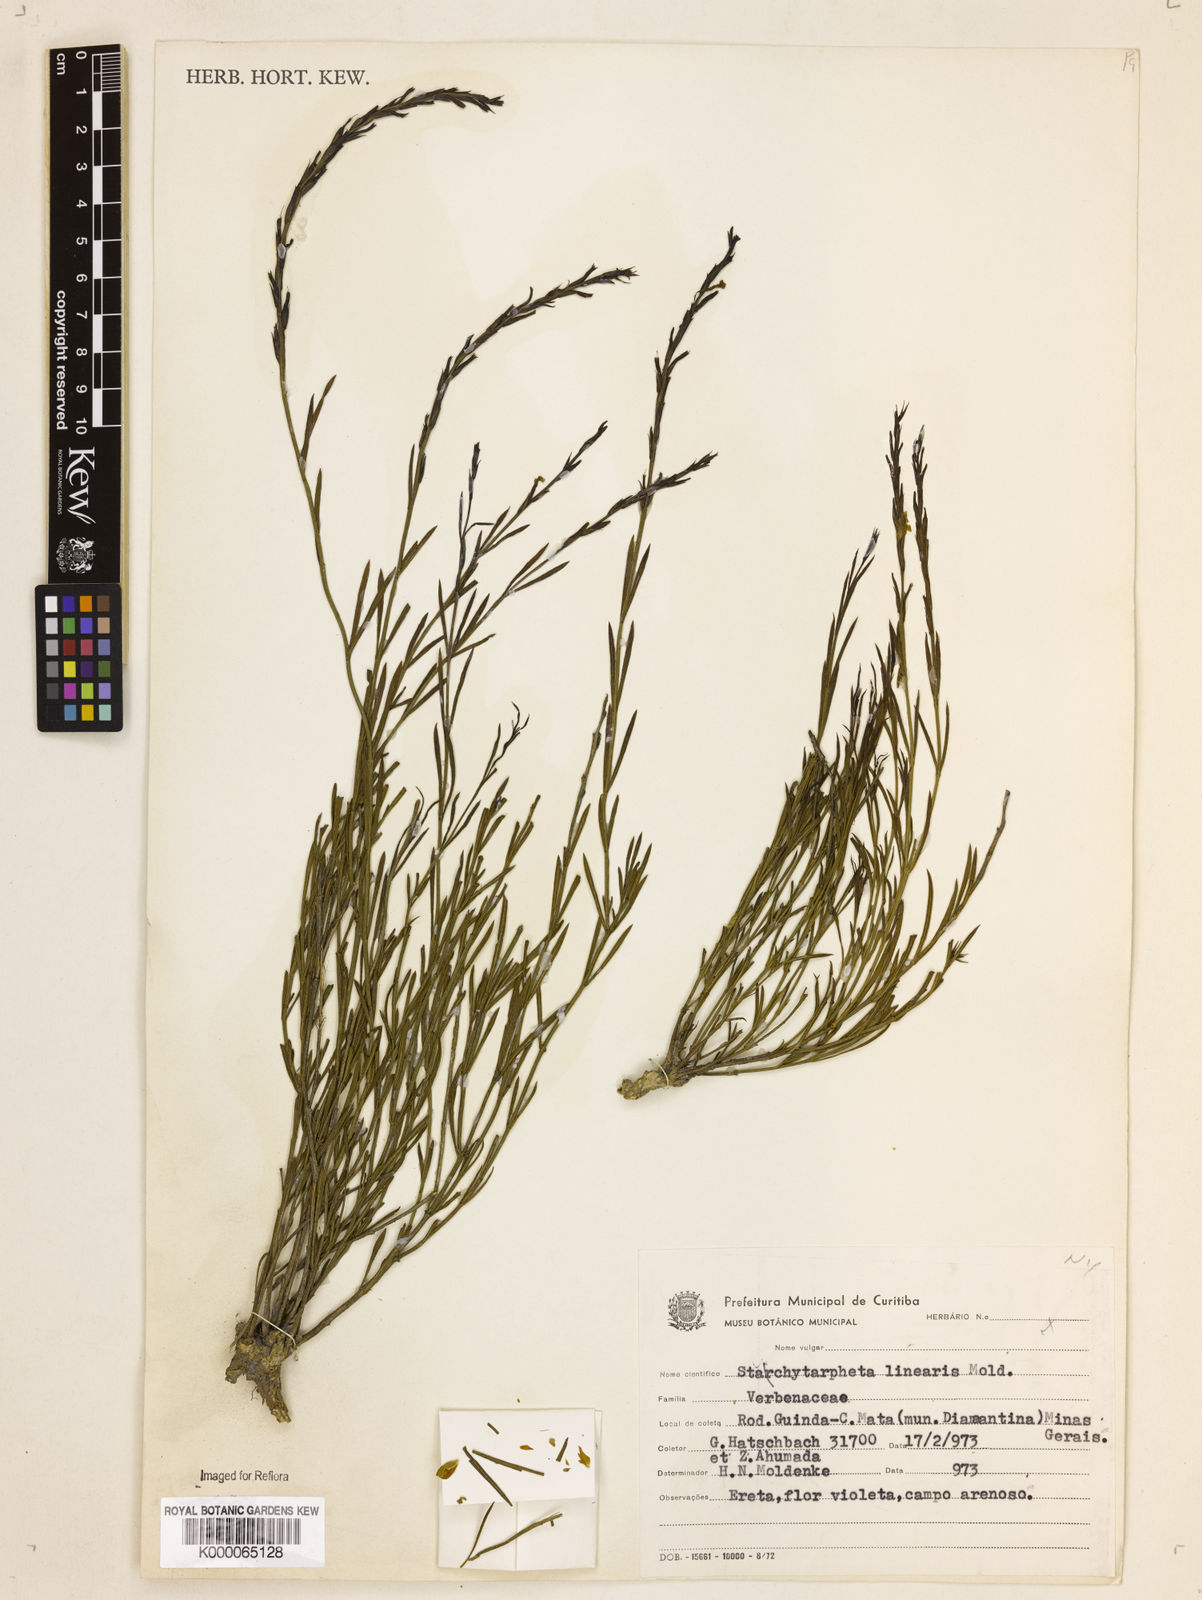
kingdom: Plantae
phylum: Tracheophyta
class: Magnoliopsida
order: Lamiales
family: Verbenaceae
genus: Stachytarpheta
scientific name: Stachytarpheta linearis
